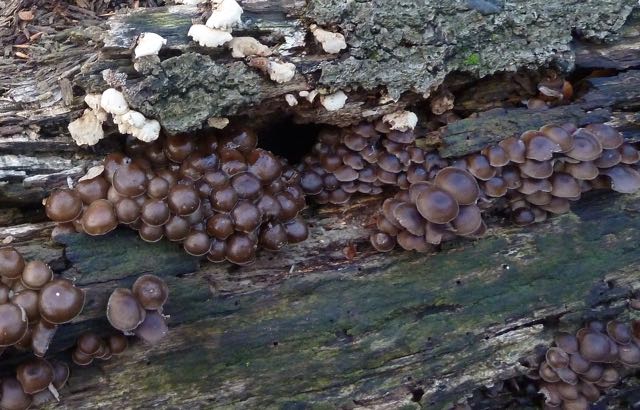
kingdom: Fungi
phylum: Basidiomycota
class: Agaricomycetes
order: Agaricales
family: Mycenaceae
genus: Mycena
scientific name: Mycena tintinnabulum
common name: vinter-huesvamp
